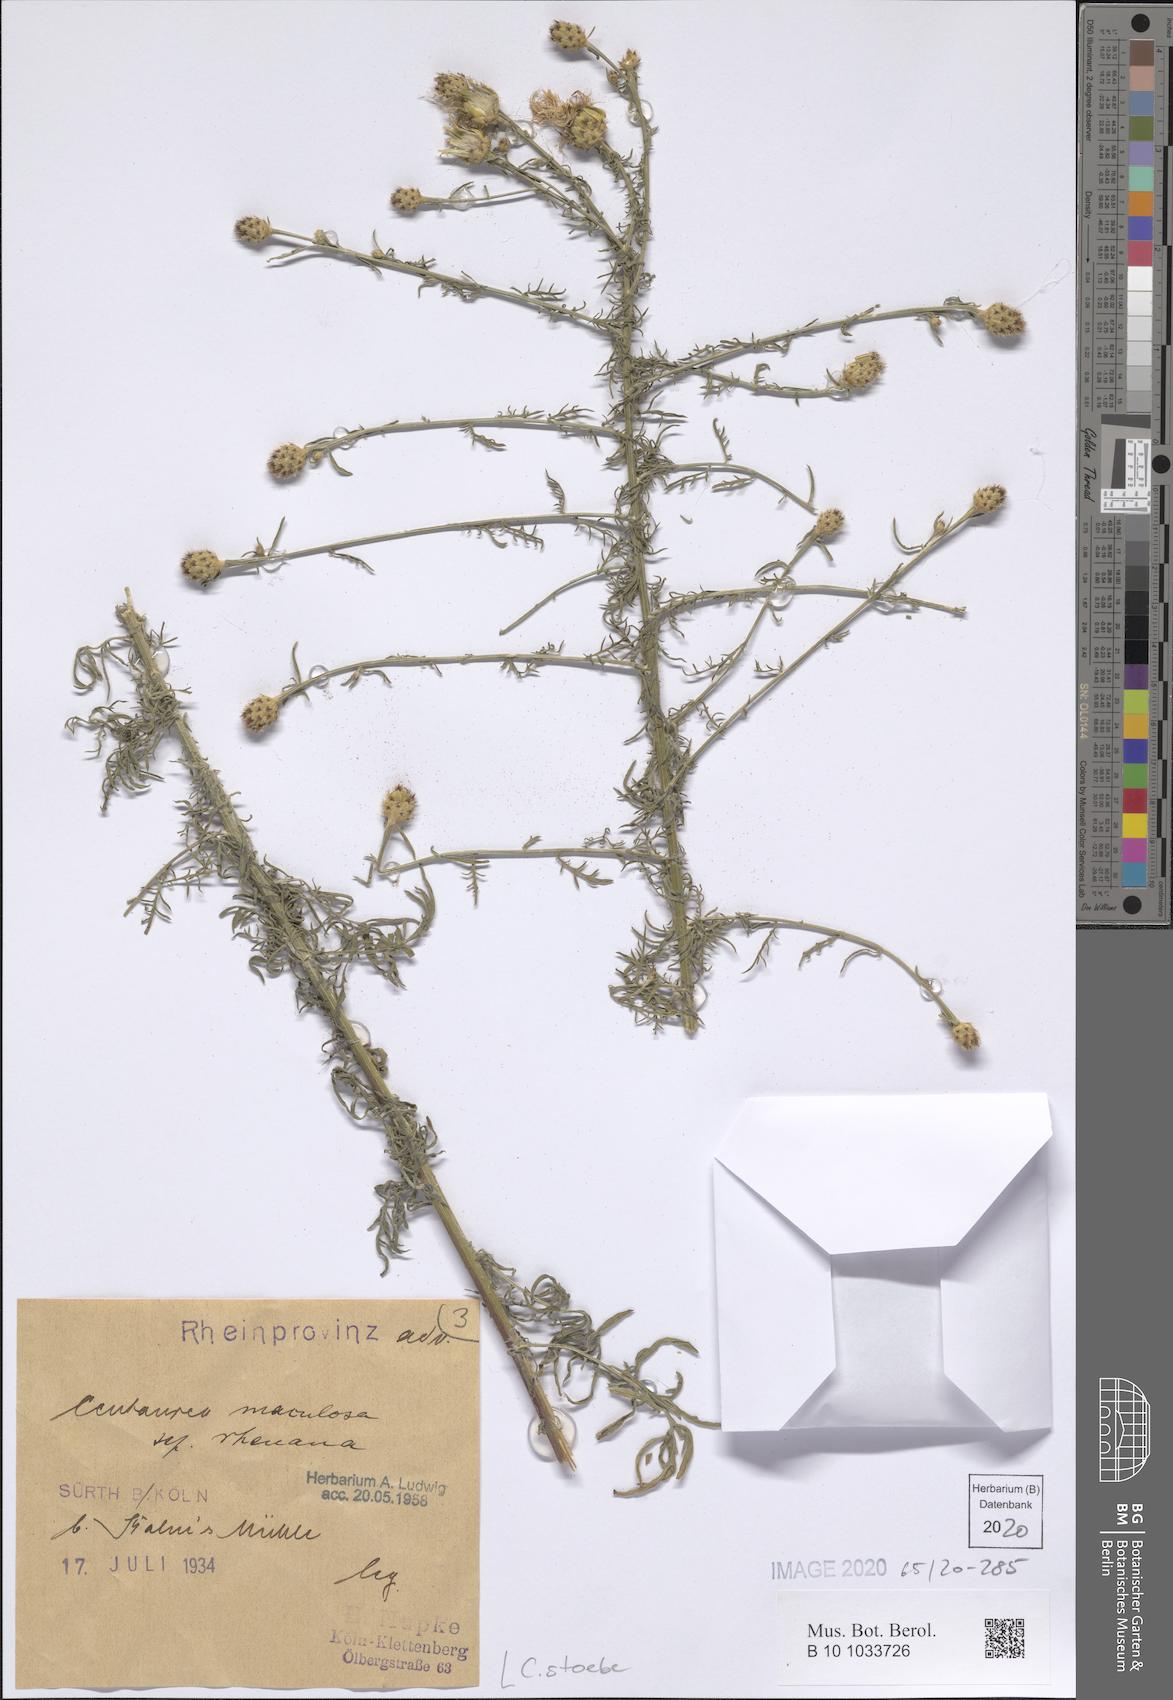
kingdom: Plantae
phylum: Tracheophyta
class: Magnoliopsida
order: Asterales
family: Asteraceae
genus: Centaurea
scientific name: Centaurea stoebe
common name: Spotted knapweed
